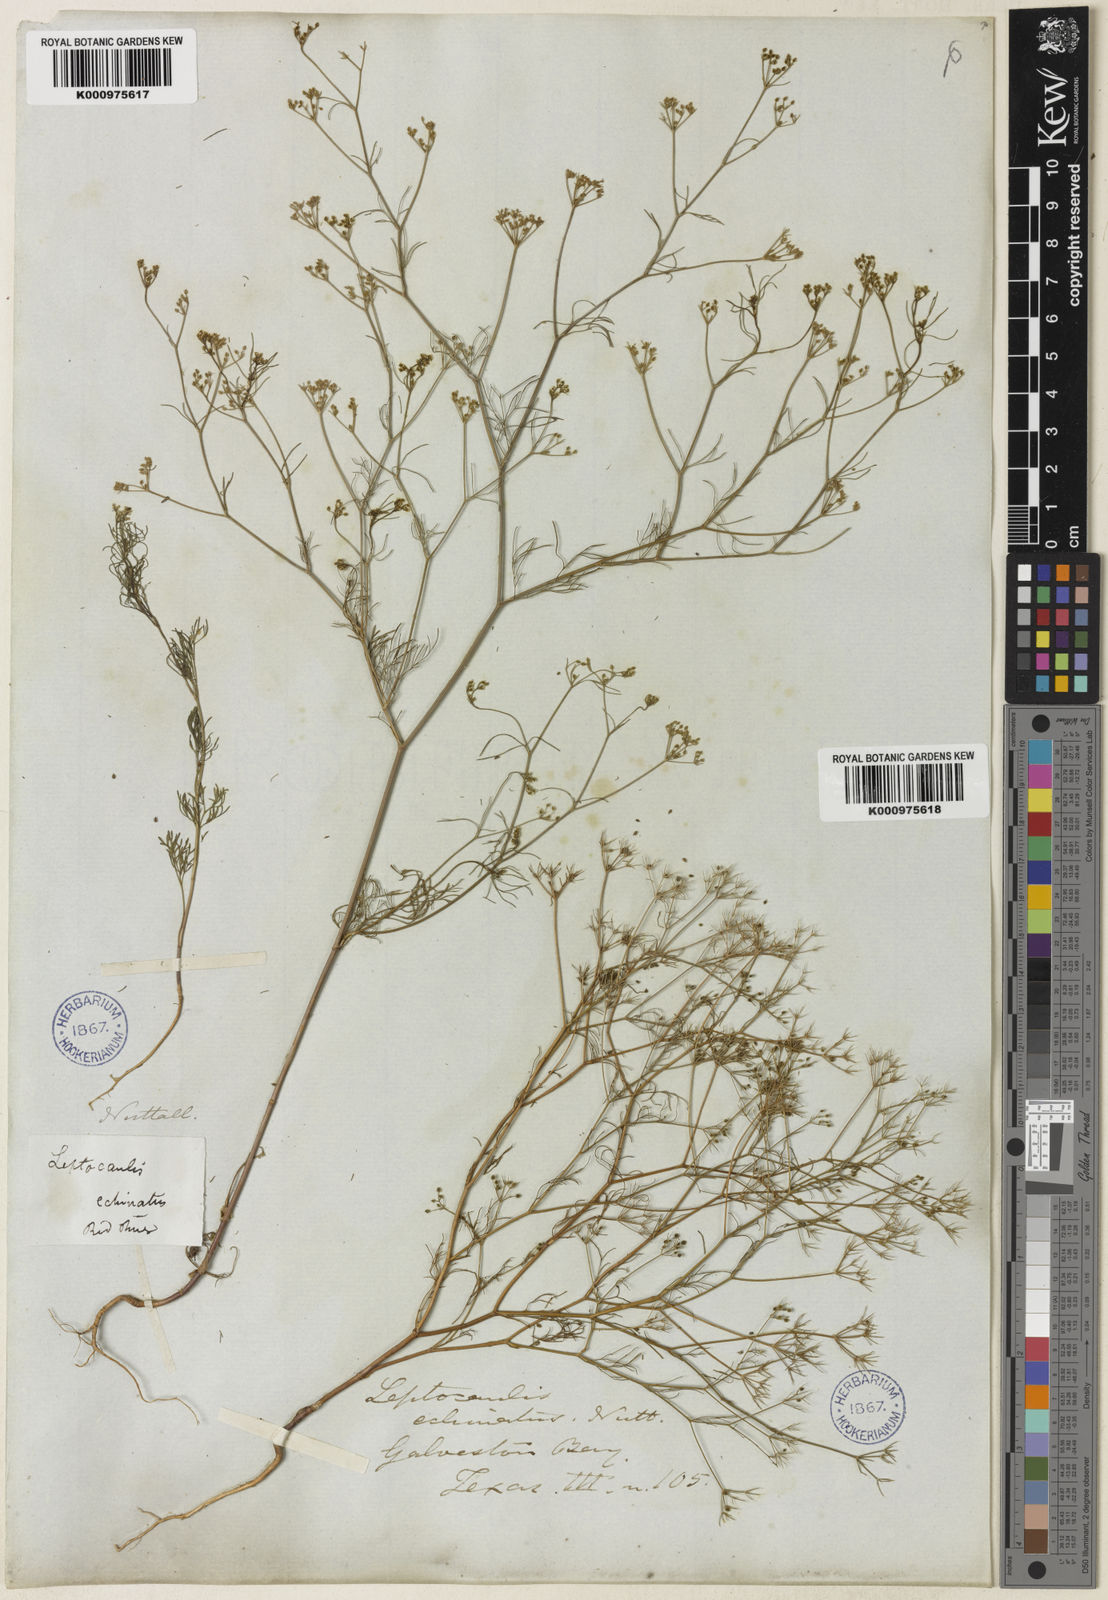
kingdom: Plantae
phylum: Tracheophyta
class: Magnoliopsida
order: Apiales
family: Apiaceae
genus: Spermolepis
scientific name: Spermolepis echinata
